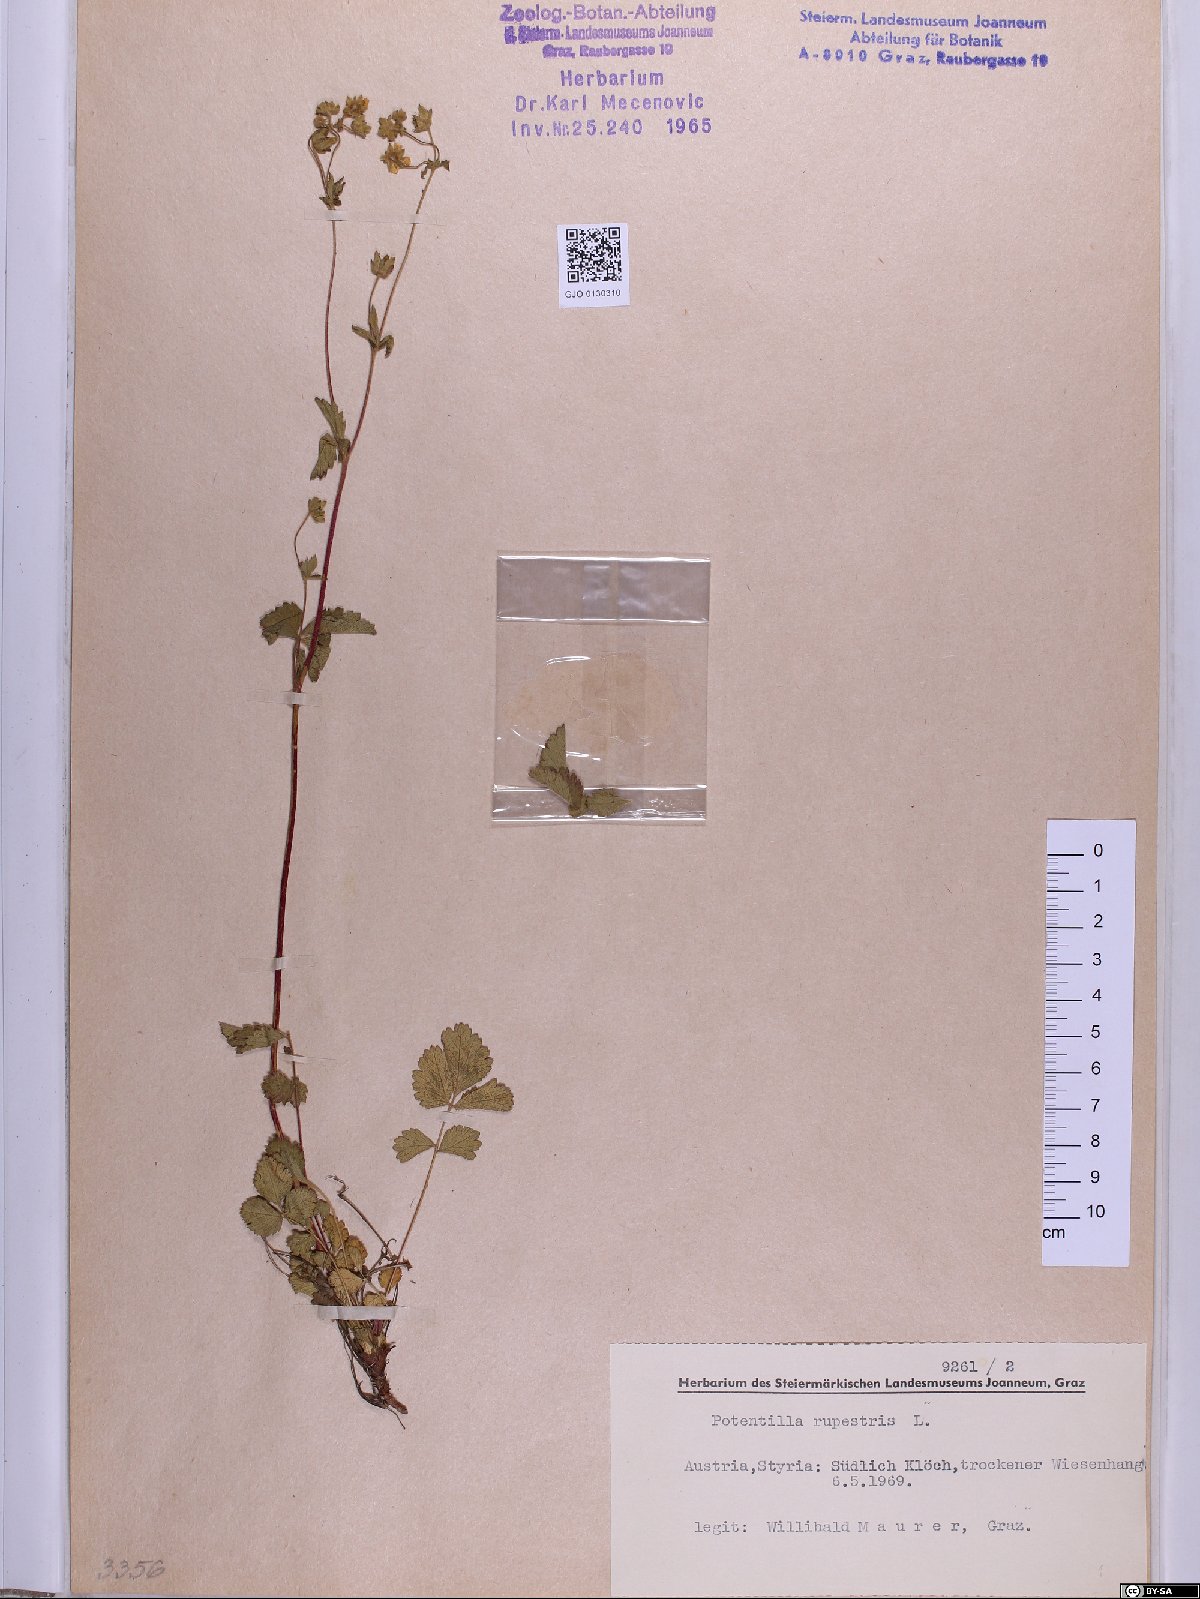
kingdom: Plantae
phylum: Tracheophyta
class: Magnoliopsida
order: Rosales
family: Rosaceae
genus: Drymocallis
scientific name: Drymocallis rupestris
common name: Rock cinquefoil
